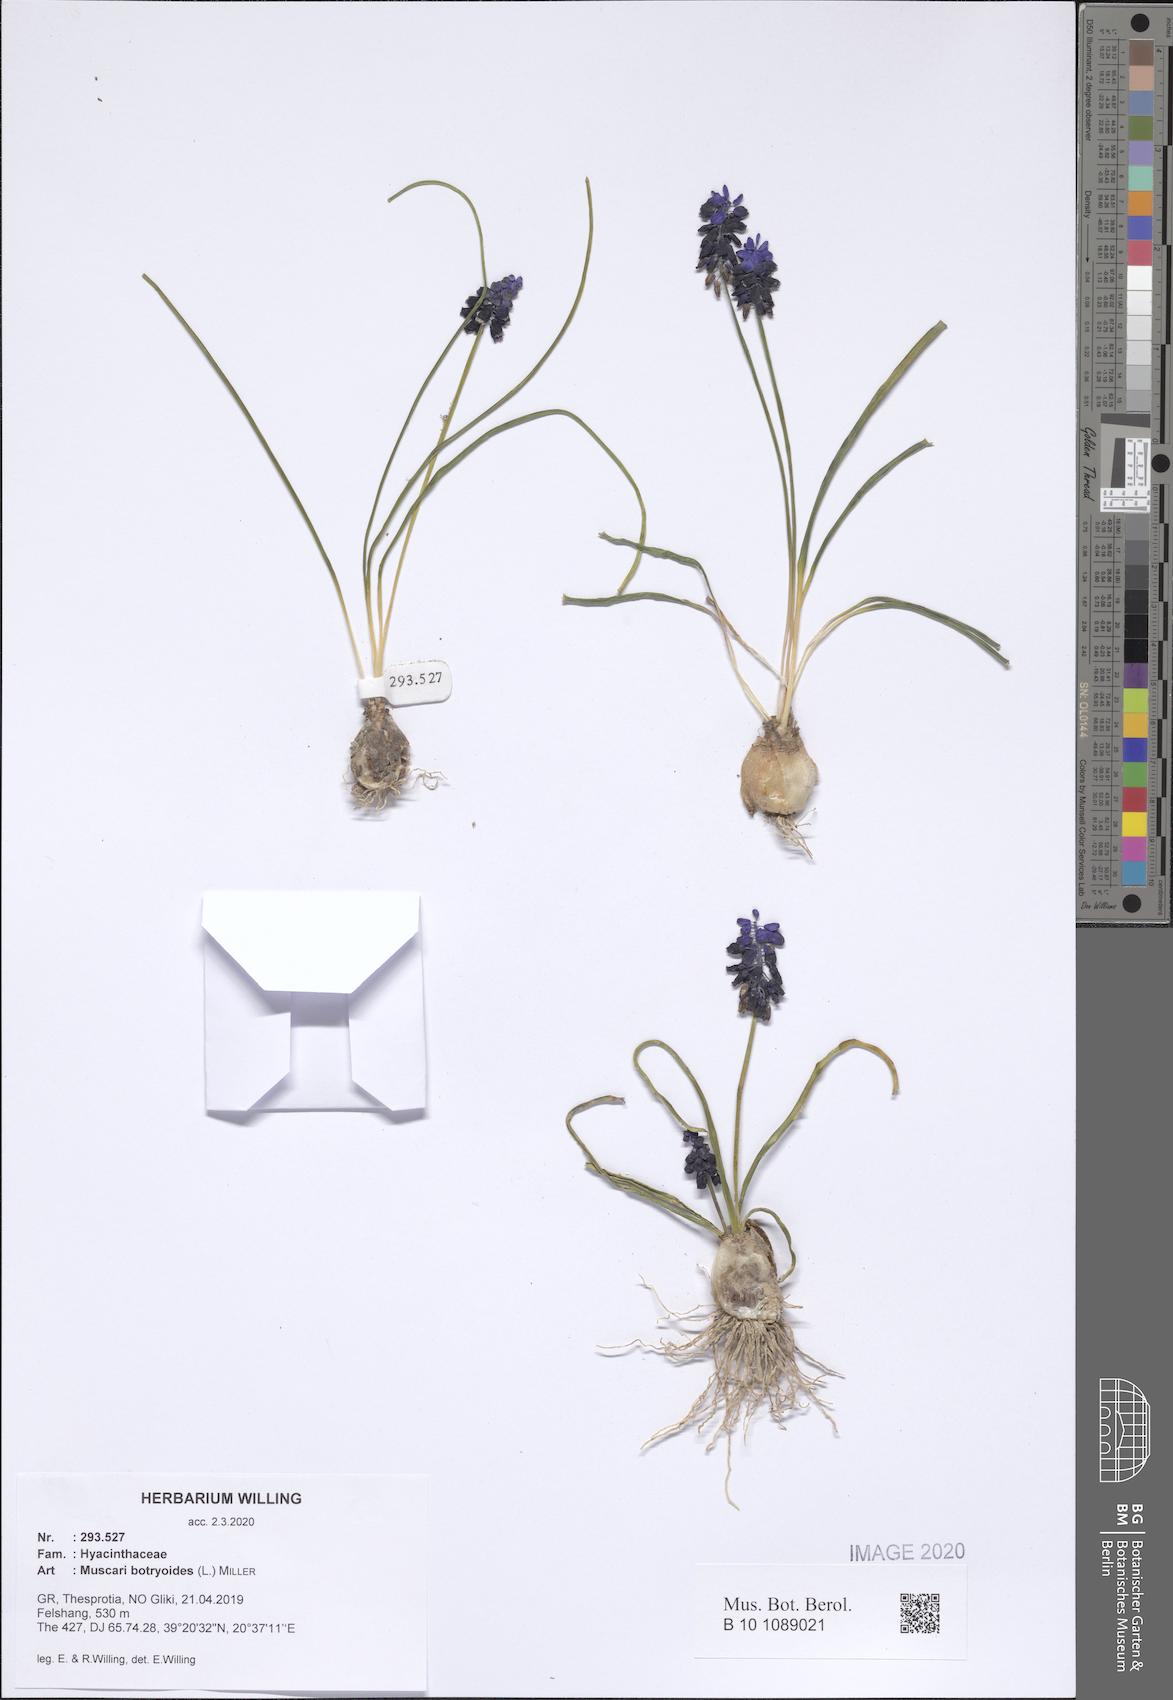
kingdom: Plantae
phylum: Tracheophyta
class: Liliopsida
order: Asparagales
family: Asparagaceae
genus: Muscari
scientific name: Muscari botryoides
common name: Compact grape-hyacinth
